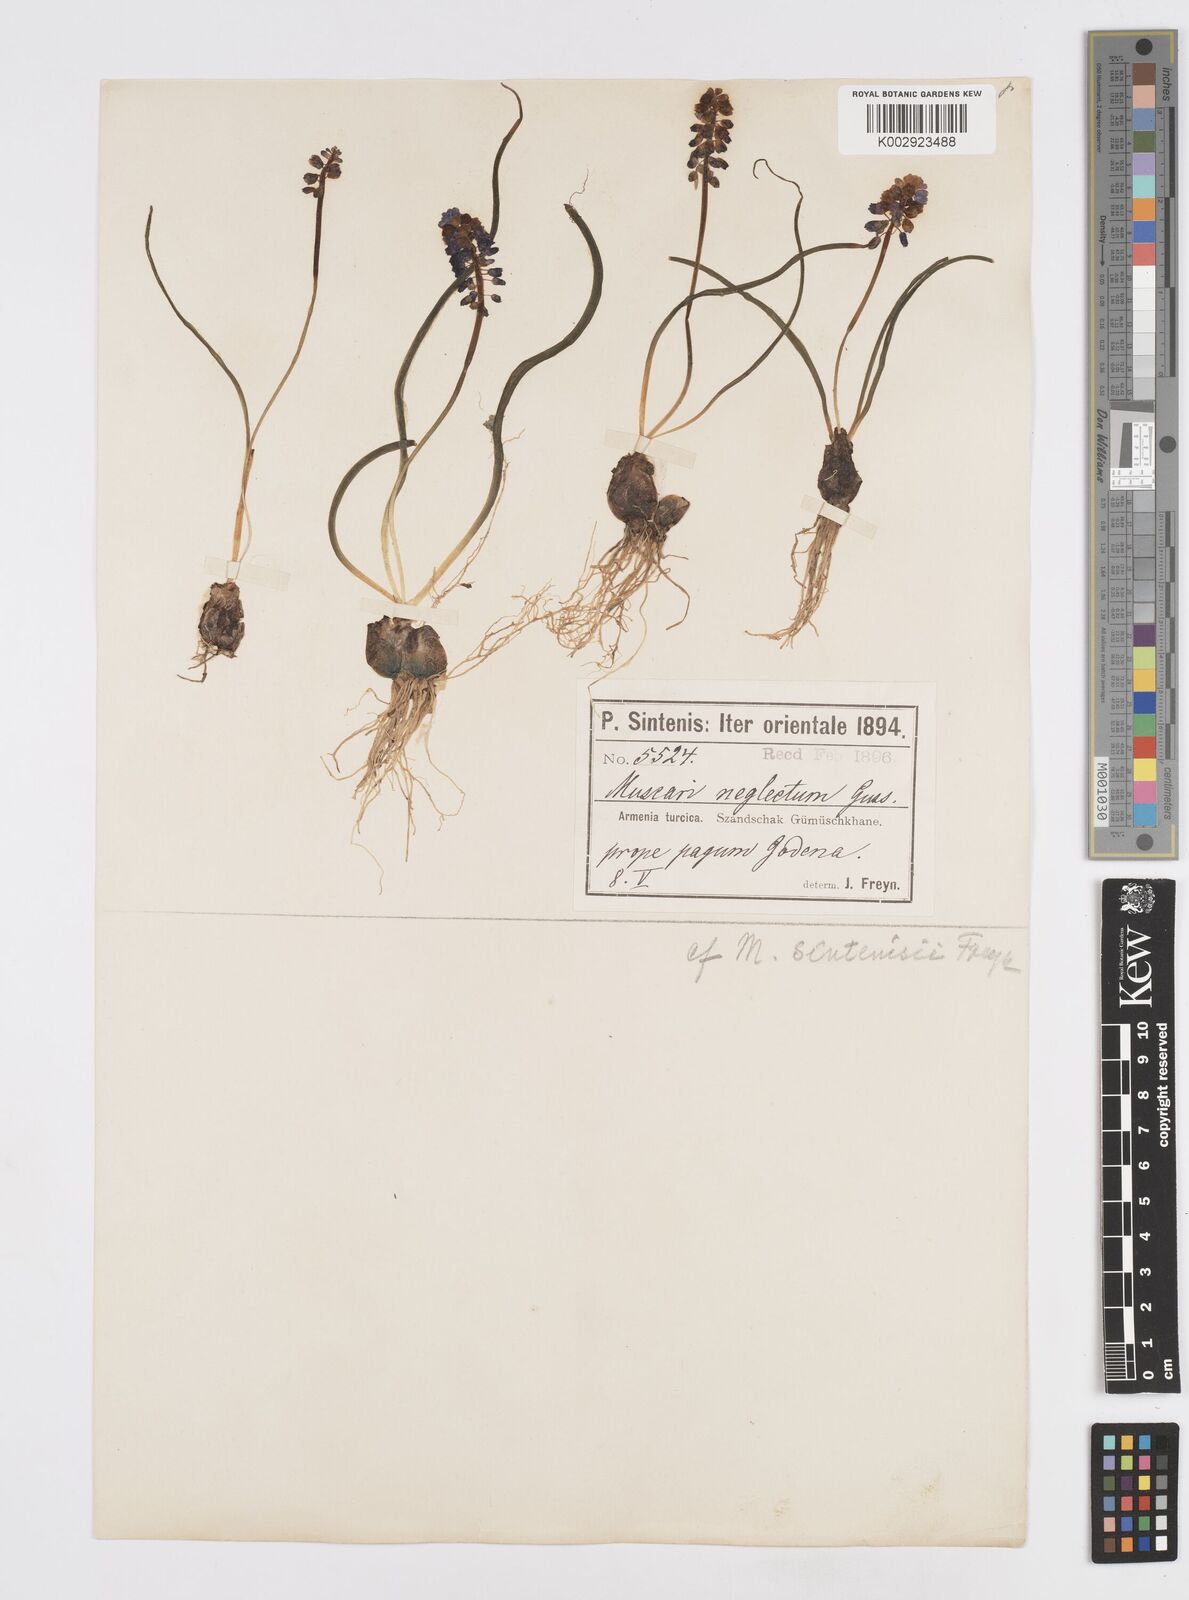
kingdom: Plantae
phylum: Tracheophyta
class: Liliopsida
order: Asparagales
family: Asparagaceae
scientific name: Asparagaceae
